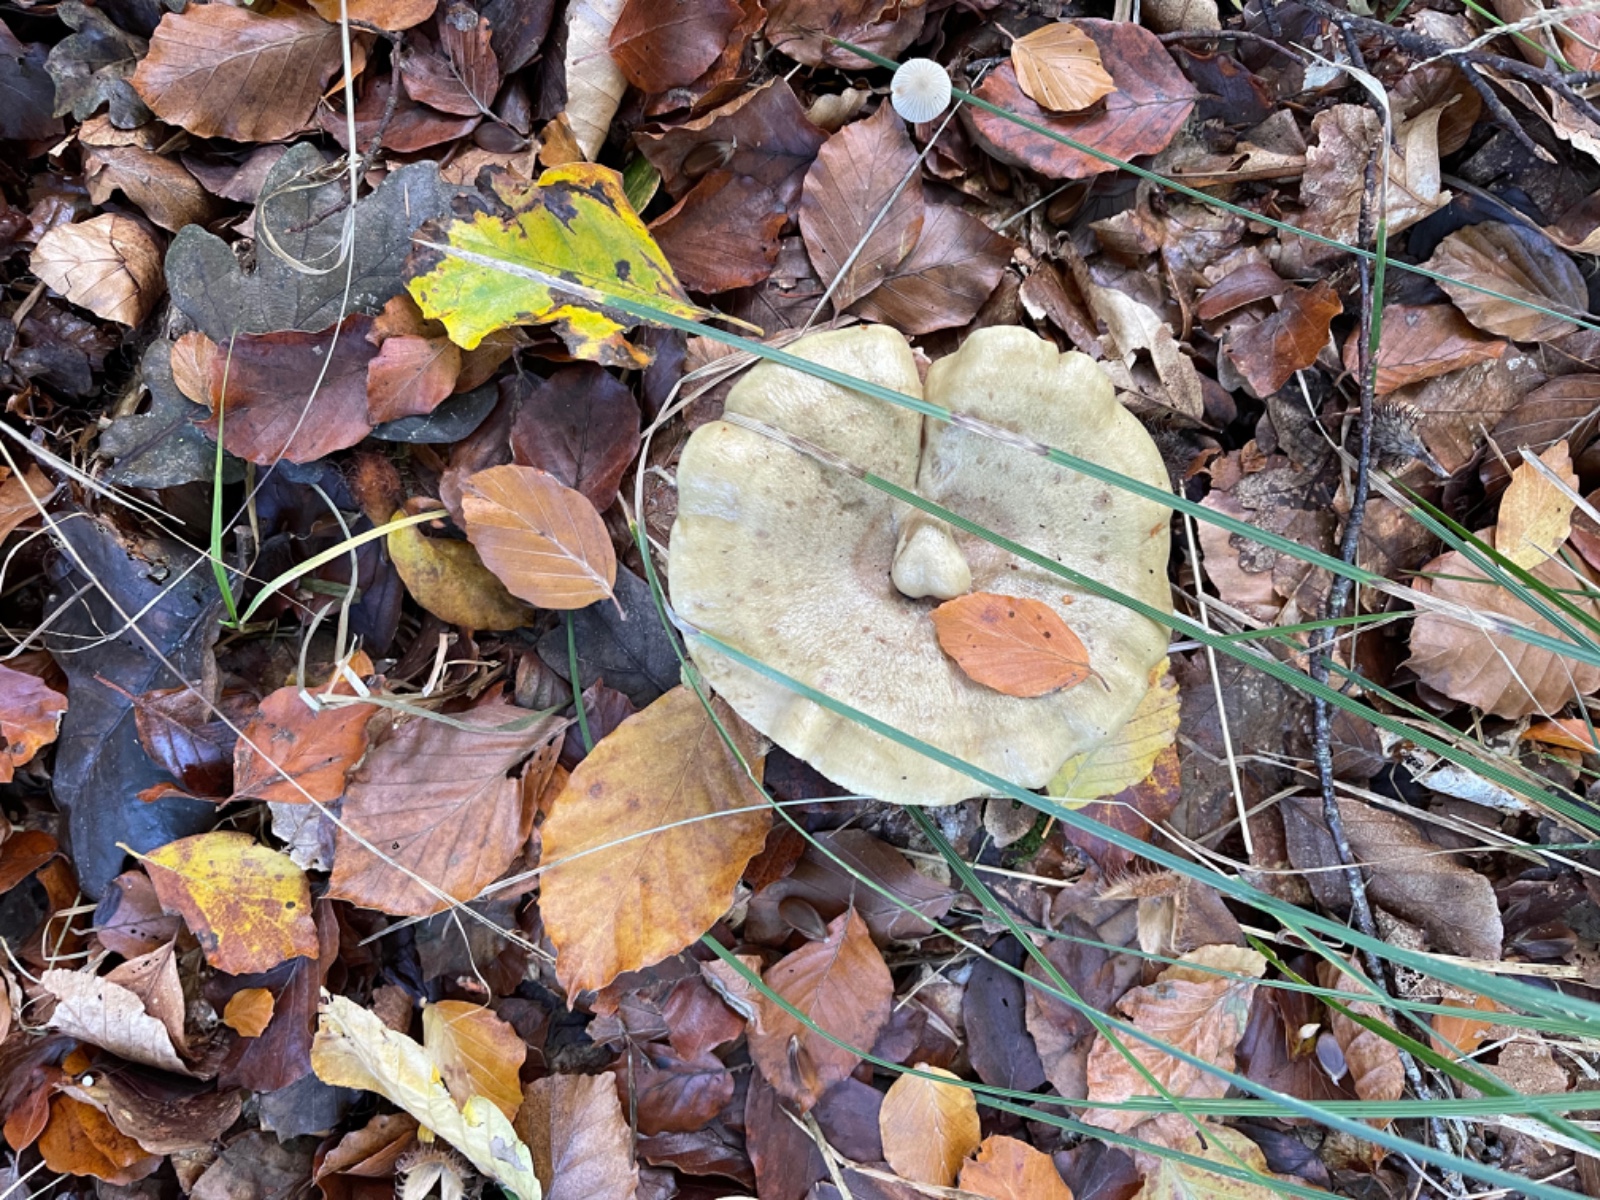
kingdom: Fungi
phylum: Basidiomycota
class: Agaricomycetes
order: Russulales
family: Russulaceae
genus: Lactarius
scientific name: Lactarius blennius
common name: dråbeplettet mælkehat
